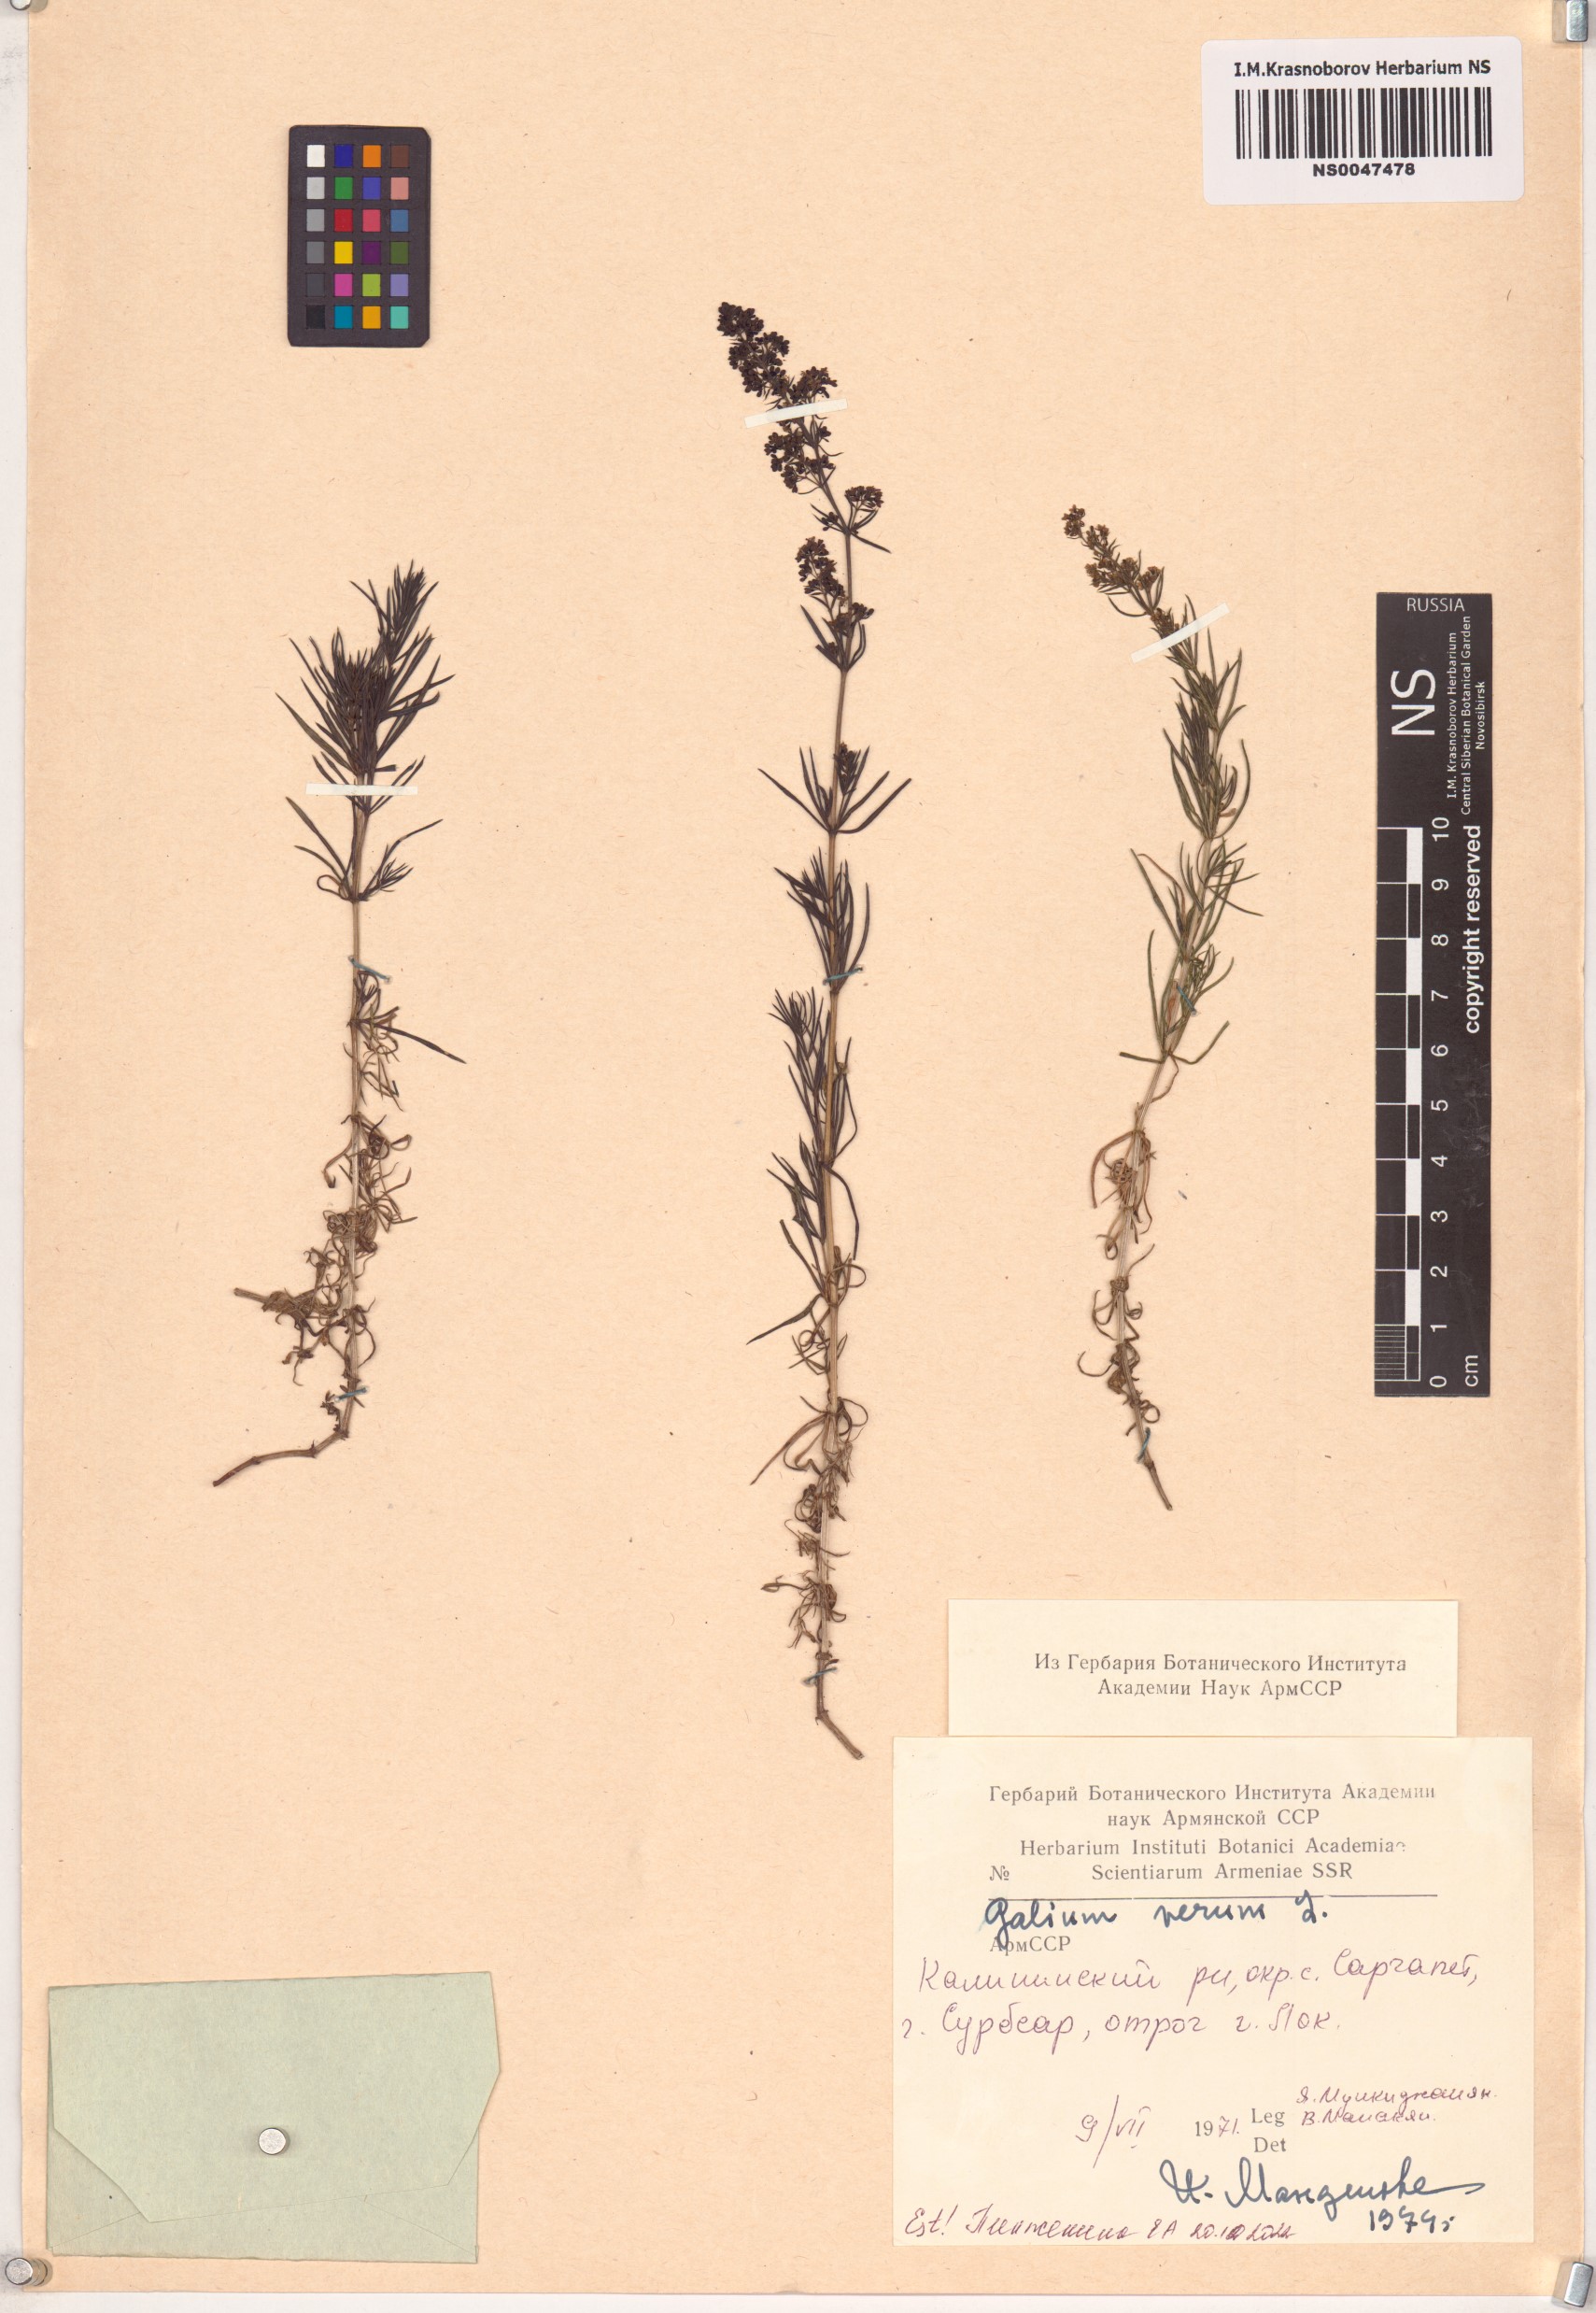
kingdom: Plantae
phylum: Tracheophyta
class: Magnoliopsida
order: Gentianales
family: Rubiaceae
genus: Galium
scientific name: Galium verum
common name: Lady's bedstraw
